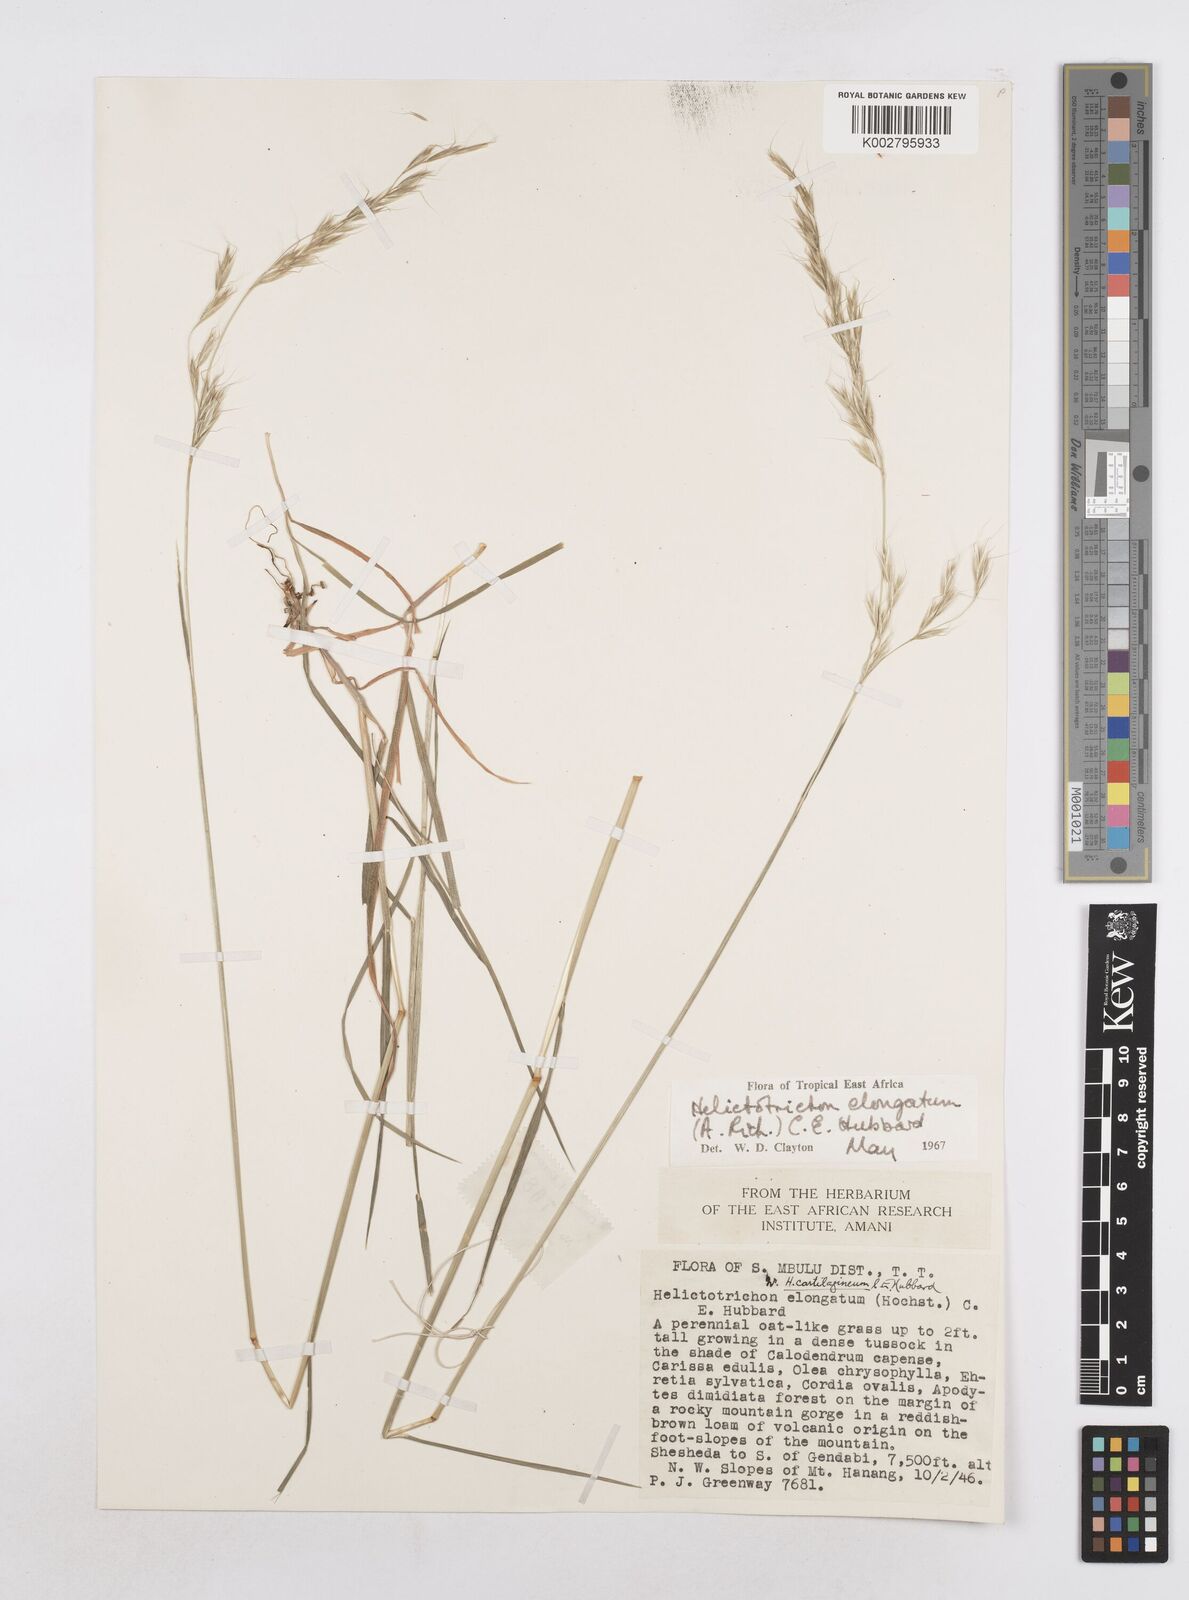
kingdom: Plantae
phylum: Tracheophyta
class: Liliopsida
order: Poales
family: Poaceae
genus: Trisetopsis
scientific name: Trisetopsis elongata
